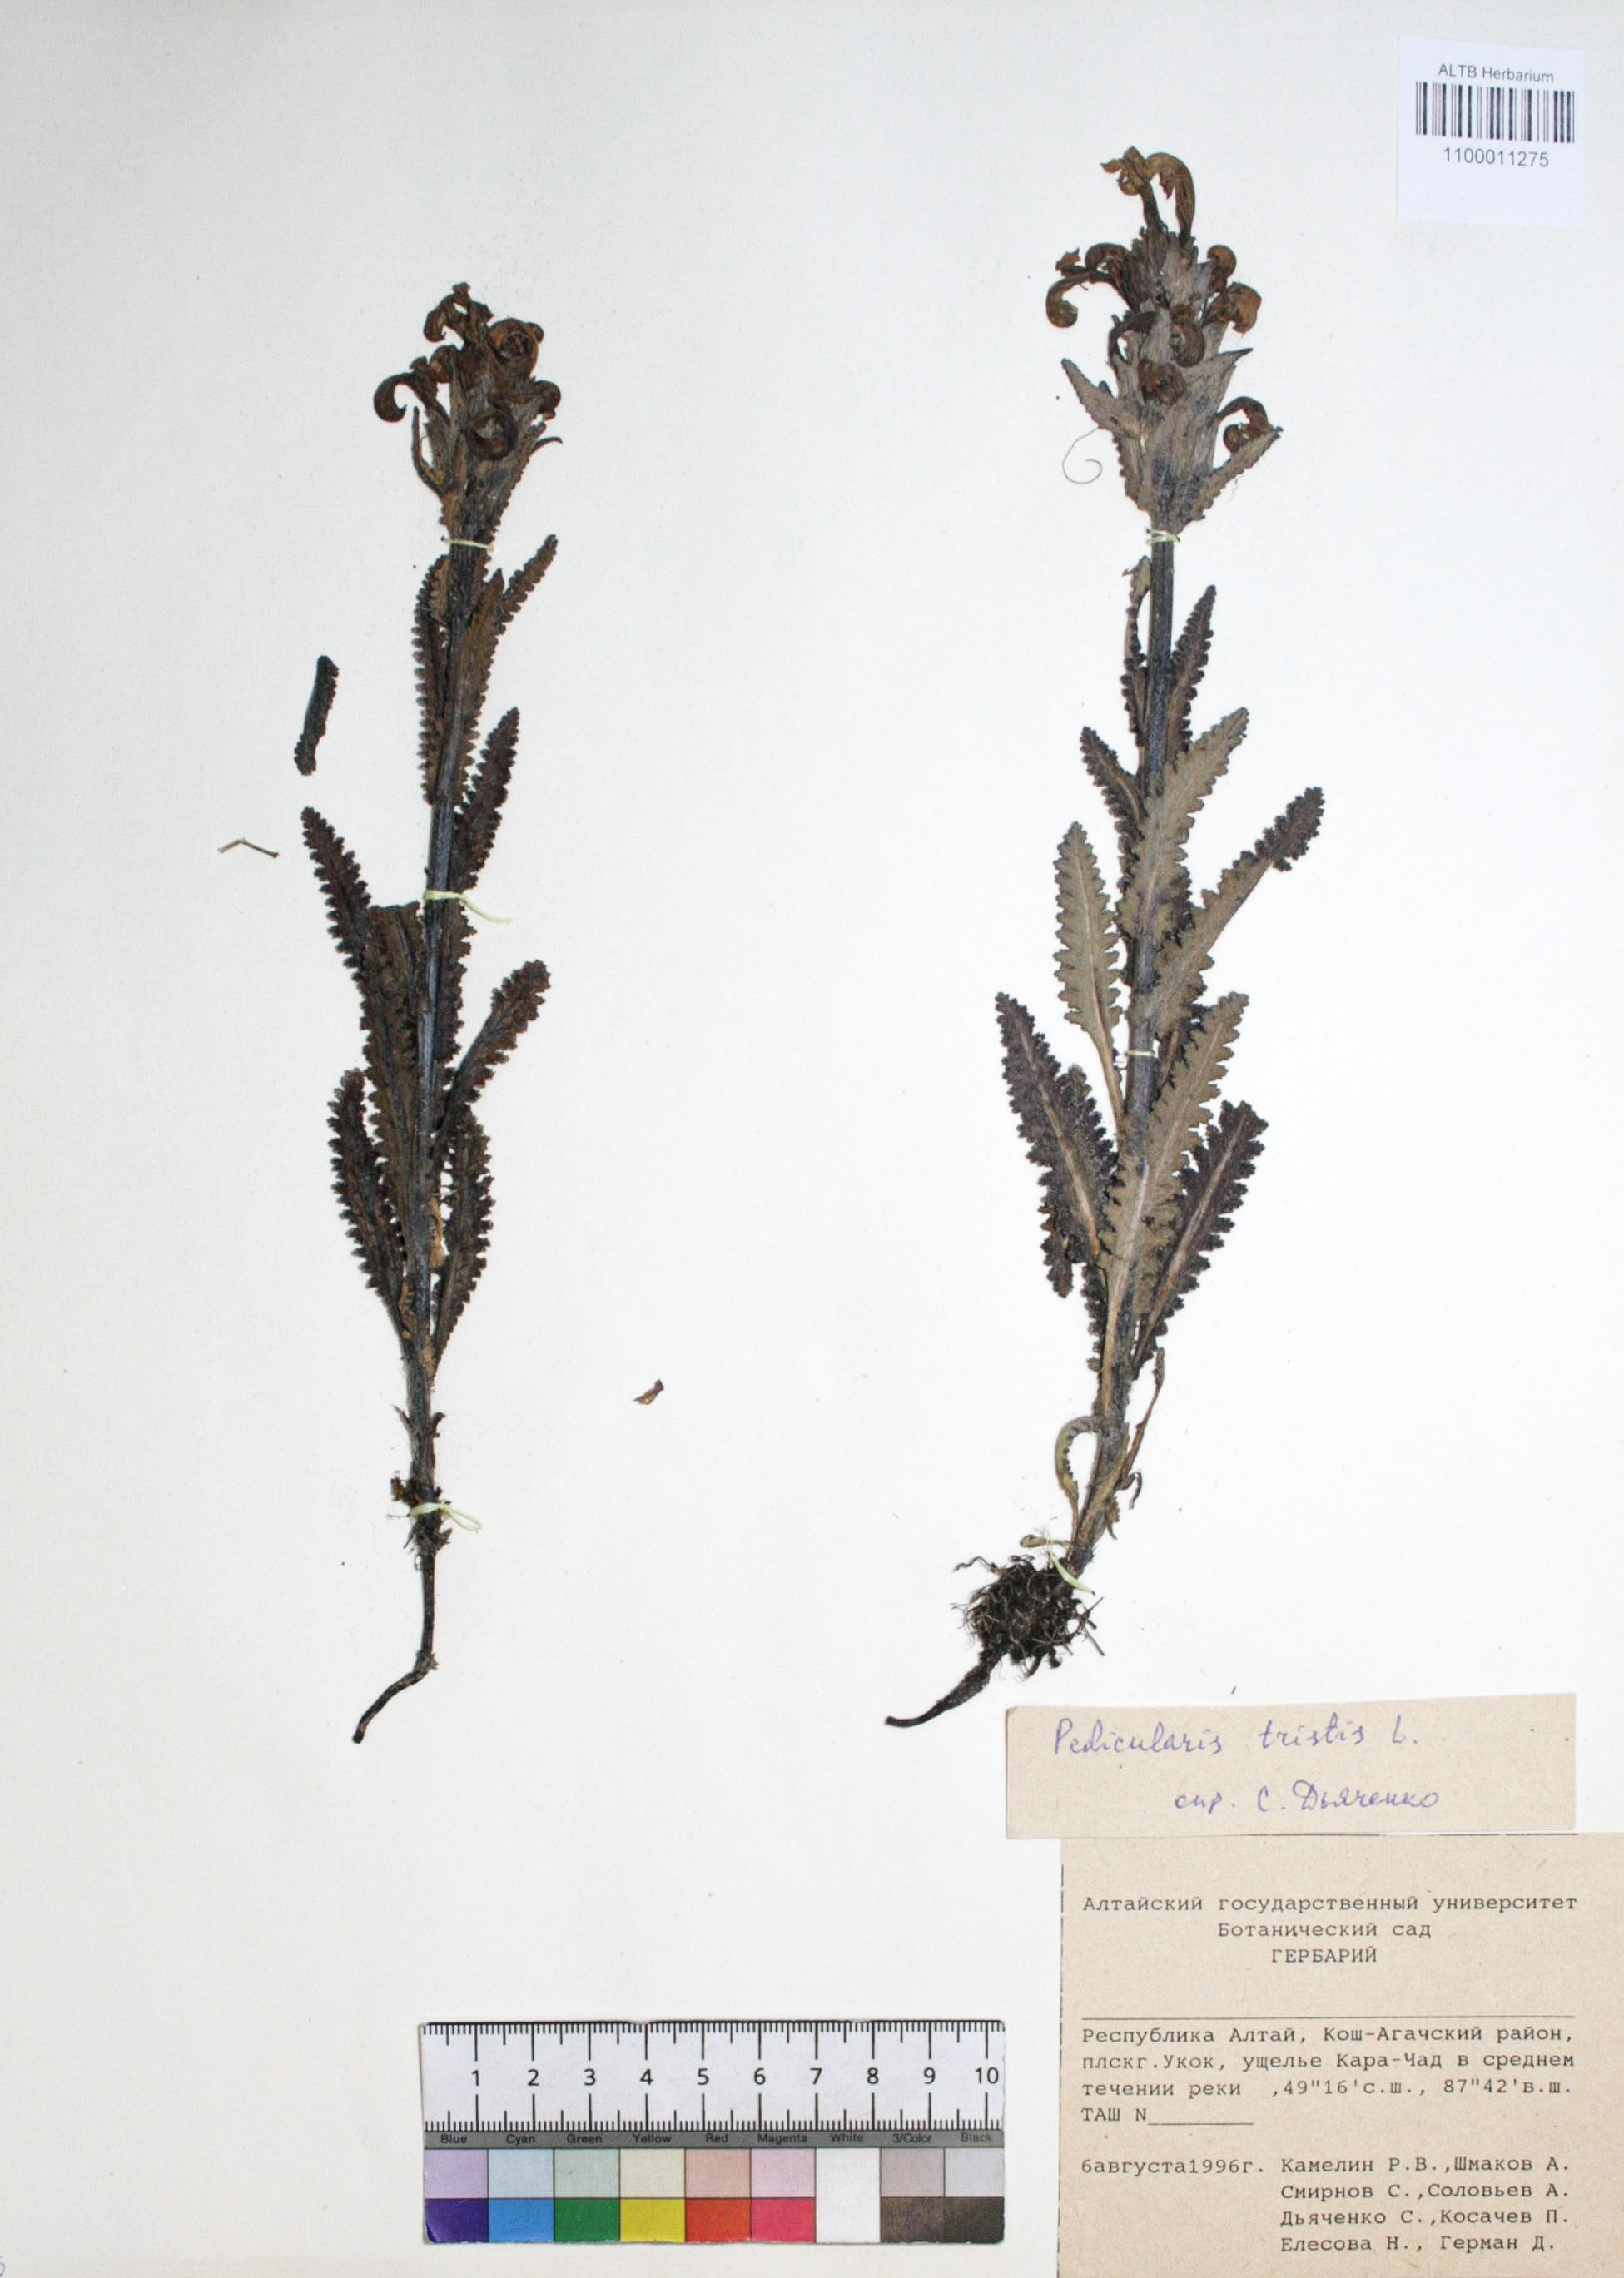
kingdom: Plantae
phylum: Tracheophyta
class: Magnoliopsida
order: Lamiales
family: Orobanchaceae
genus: Pedicularis
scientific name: Pedicularis tristis
